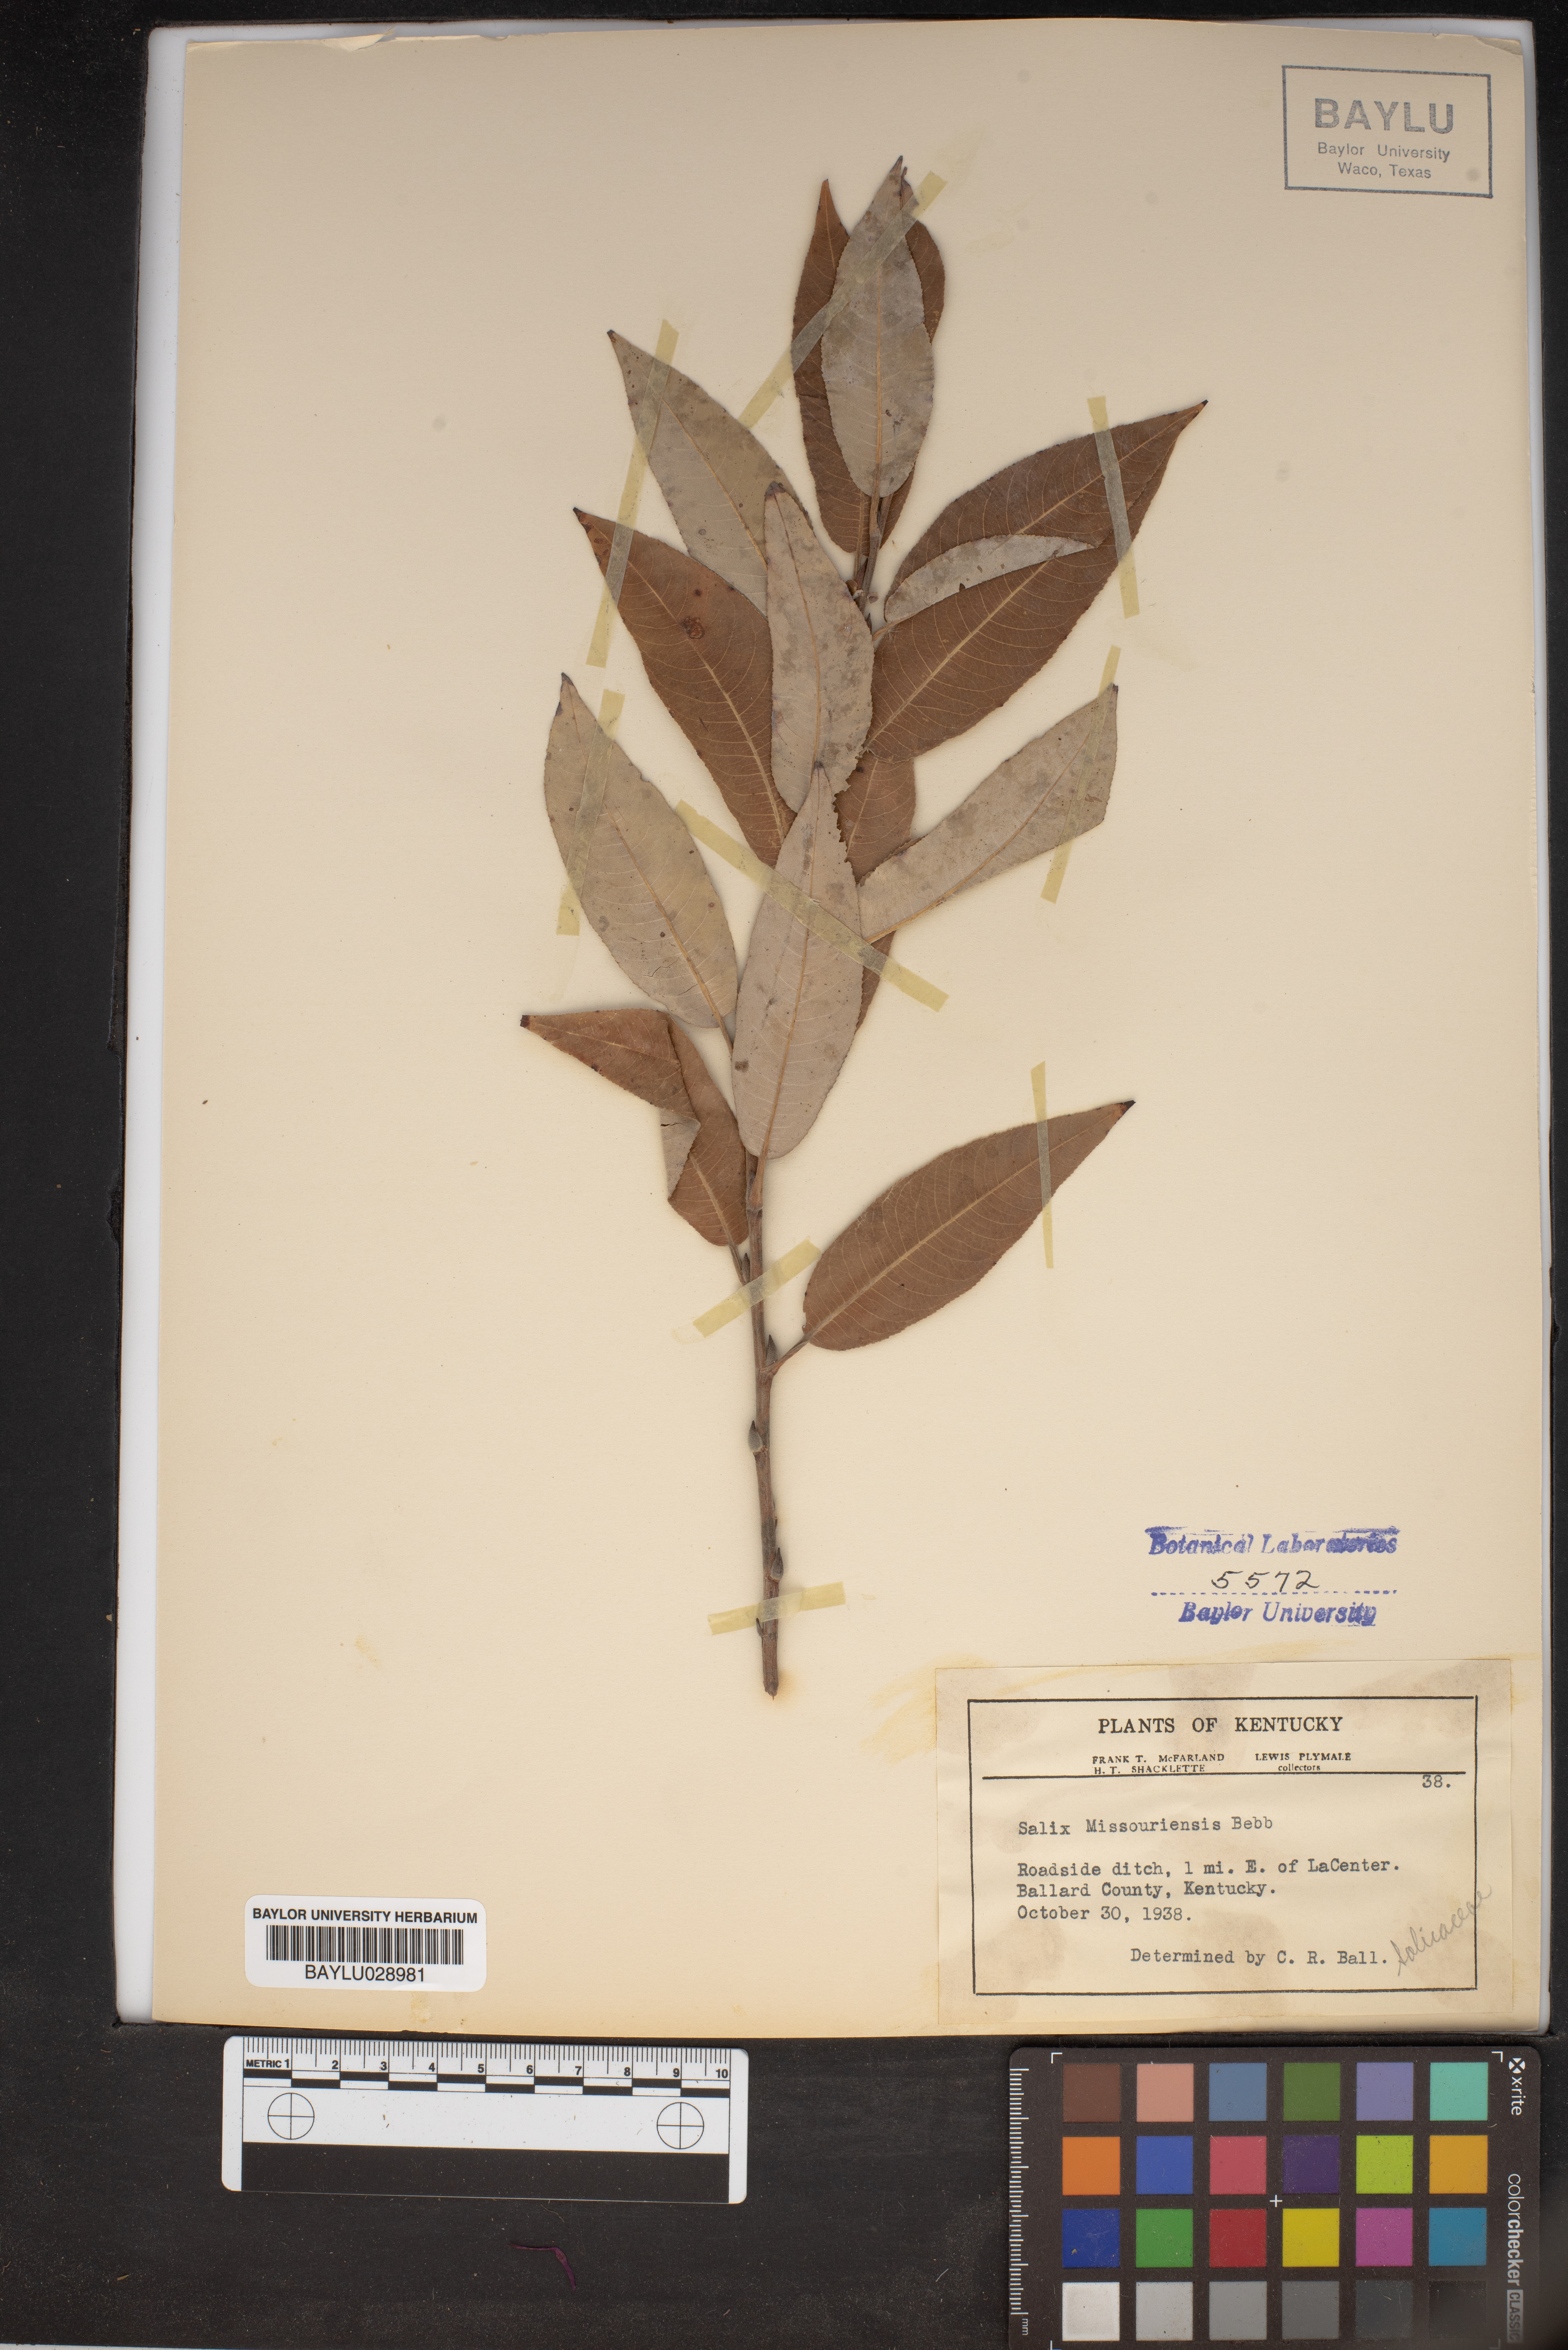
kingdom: Plantae
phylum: Tracheophyta
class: Magnoliopsida
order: Malpighiales
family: Salicaceae
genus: Salix
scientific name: Salix eriocephala
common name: Heart-leaved willow
